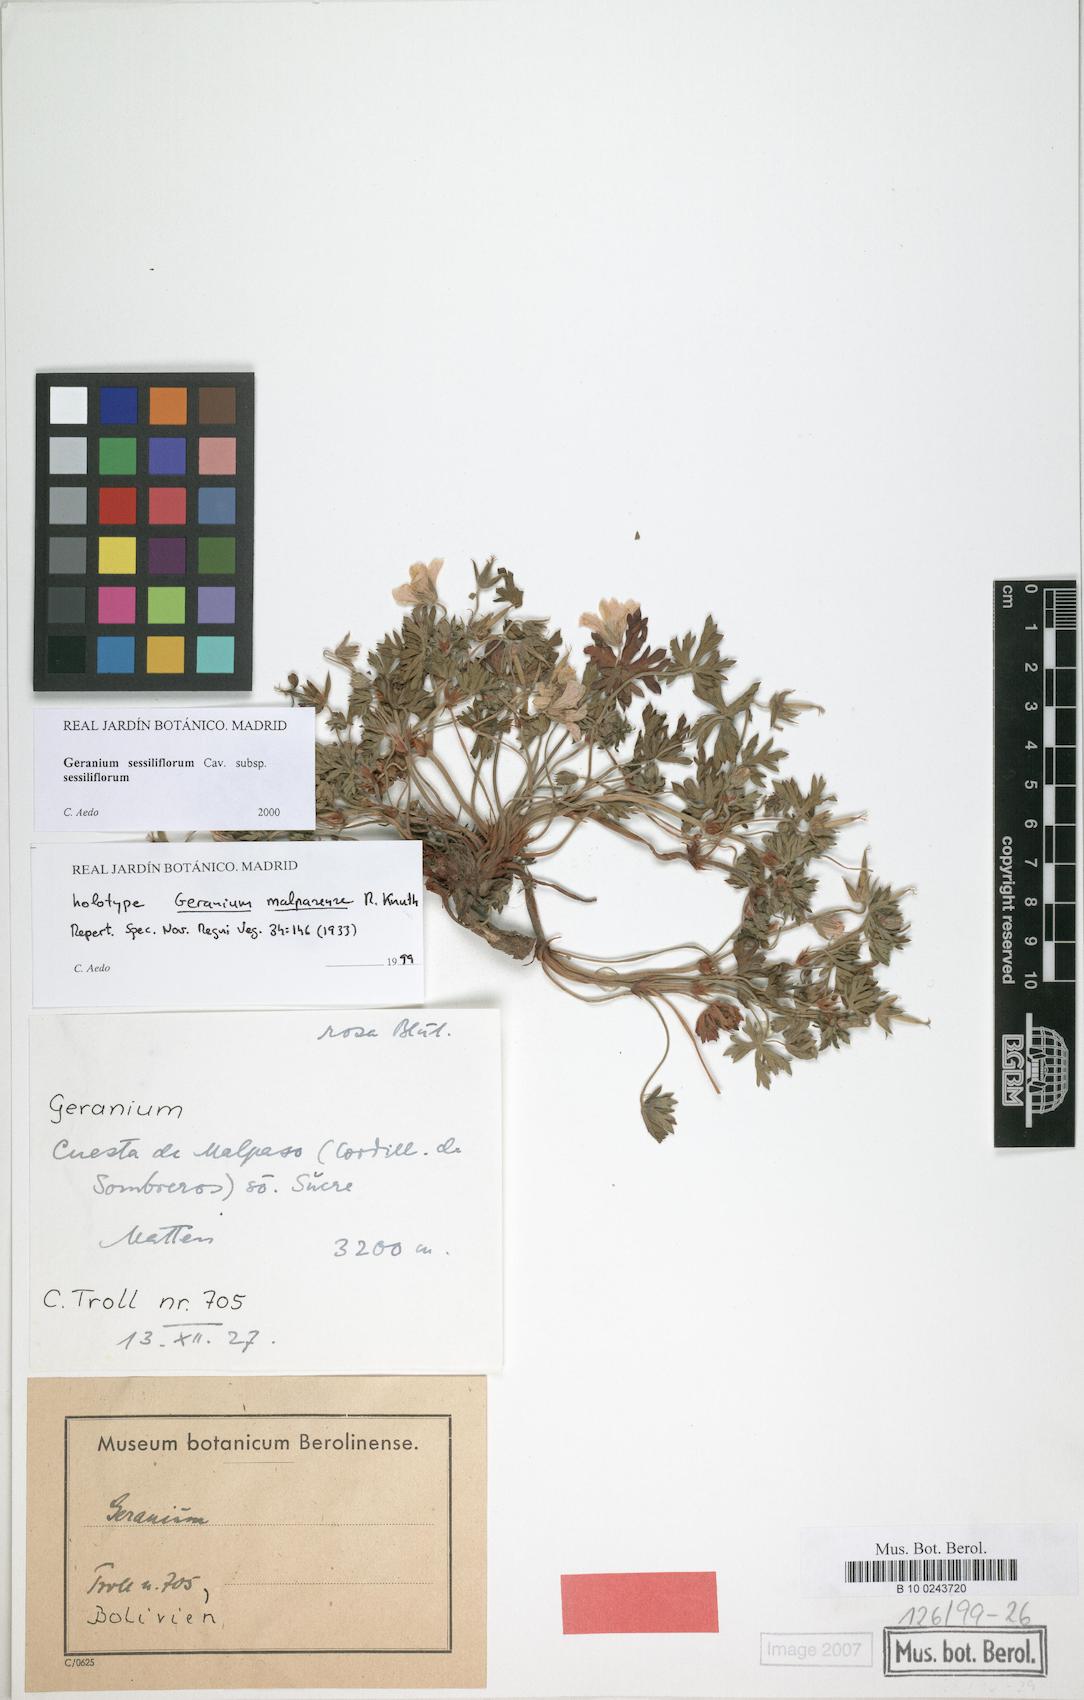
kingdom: Plantae
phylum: Tracheophyta
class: Magnoliopsida
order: Geraniales
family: Geraniaceae
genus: Geranium
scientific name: Geranium sessiliflorum
